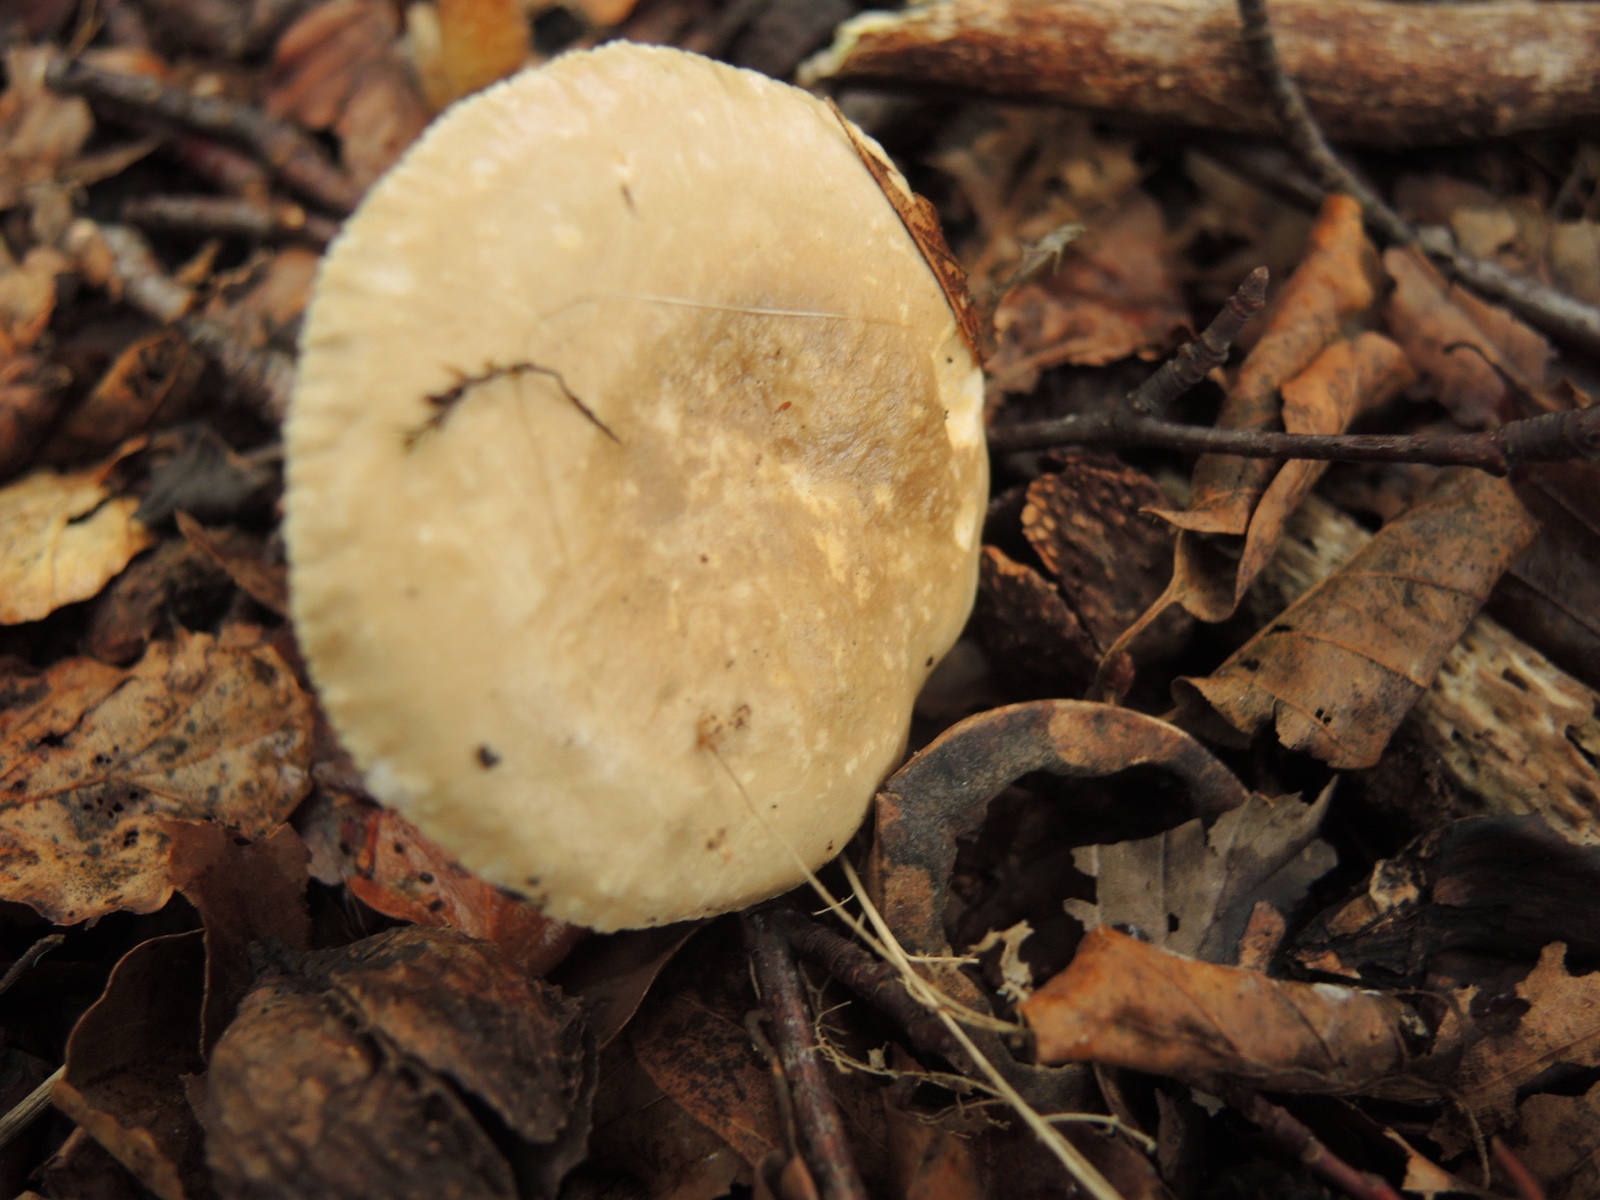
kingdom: Fungi
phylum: Basidiomycota
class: Agaricomycetes
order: Russulales
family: Russulaceae
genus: Lactarius
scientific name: Lactarius
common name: mælkehat
